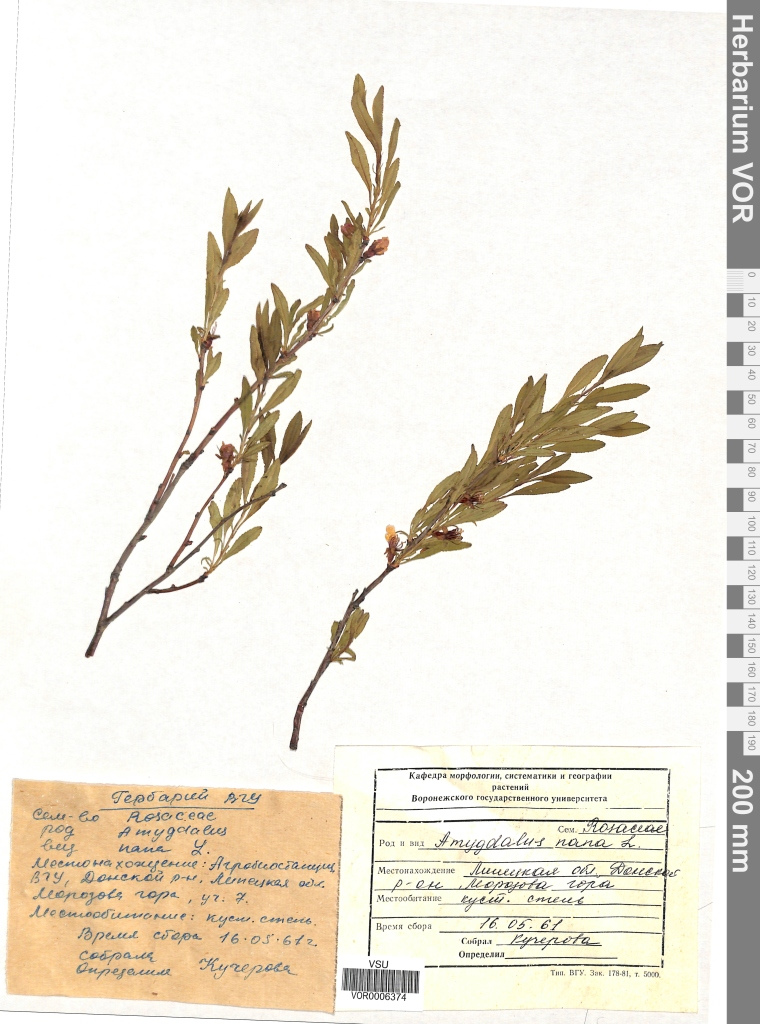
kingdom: Plantae
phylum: Tracheophyta
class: Magnoliopsida
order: Rosales
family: Rosaceae
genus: Prunus
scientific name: Prunus tenella
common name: Dwarf russian almond
